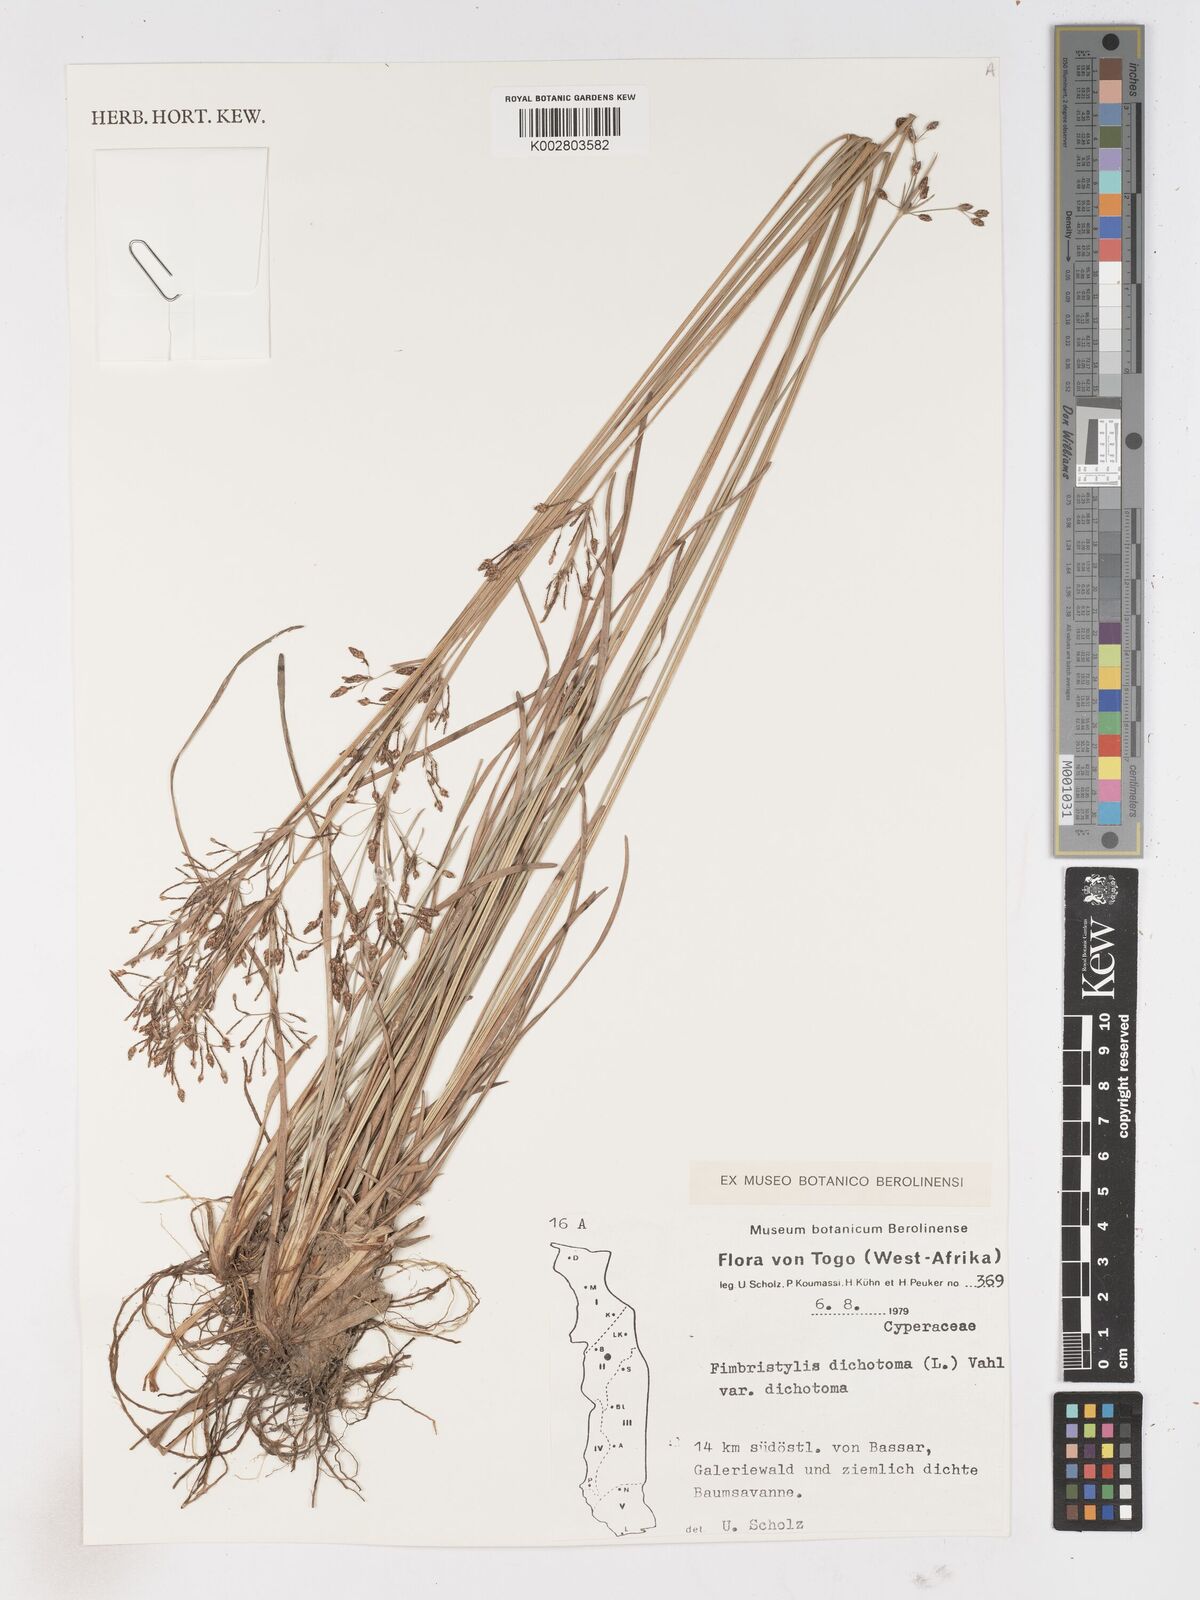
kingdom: Plantae
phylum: Tracheophyta
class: Liliopsida
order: Poales
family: Cyperaceae
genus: Fimbristylis
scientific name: Fimbristylis dichotoma
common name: Forked fimbry
